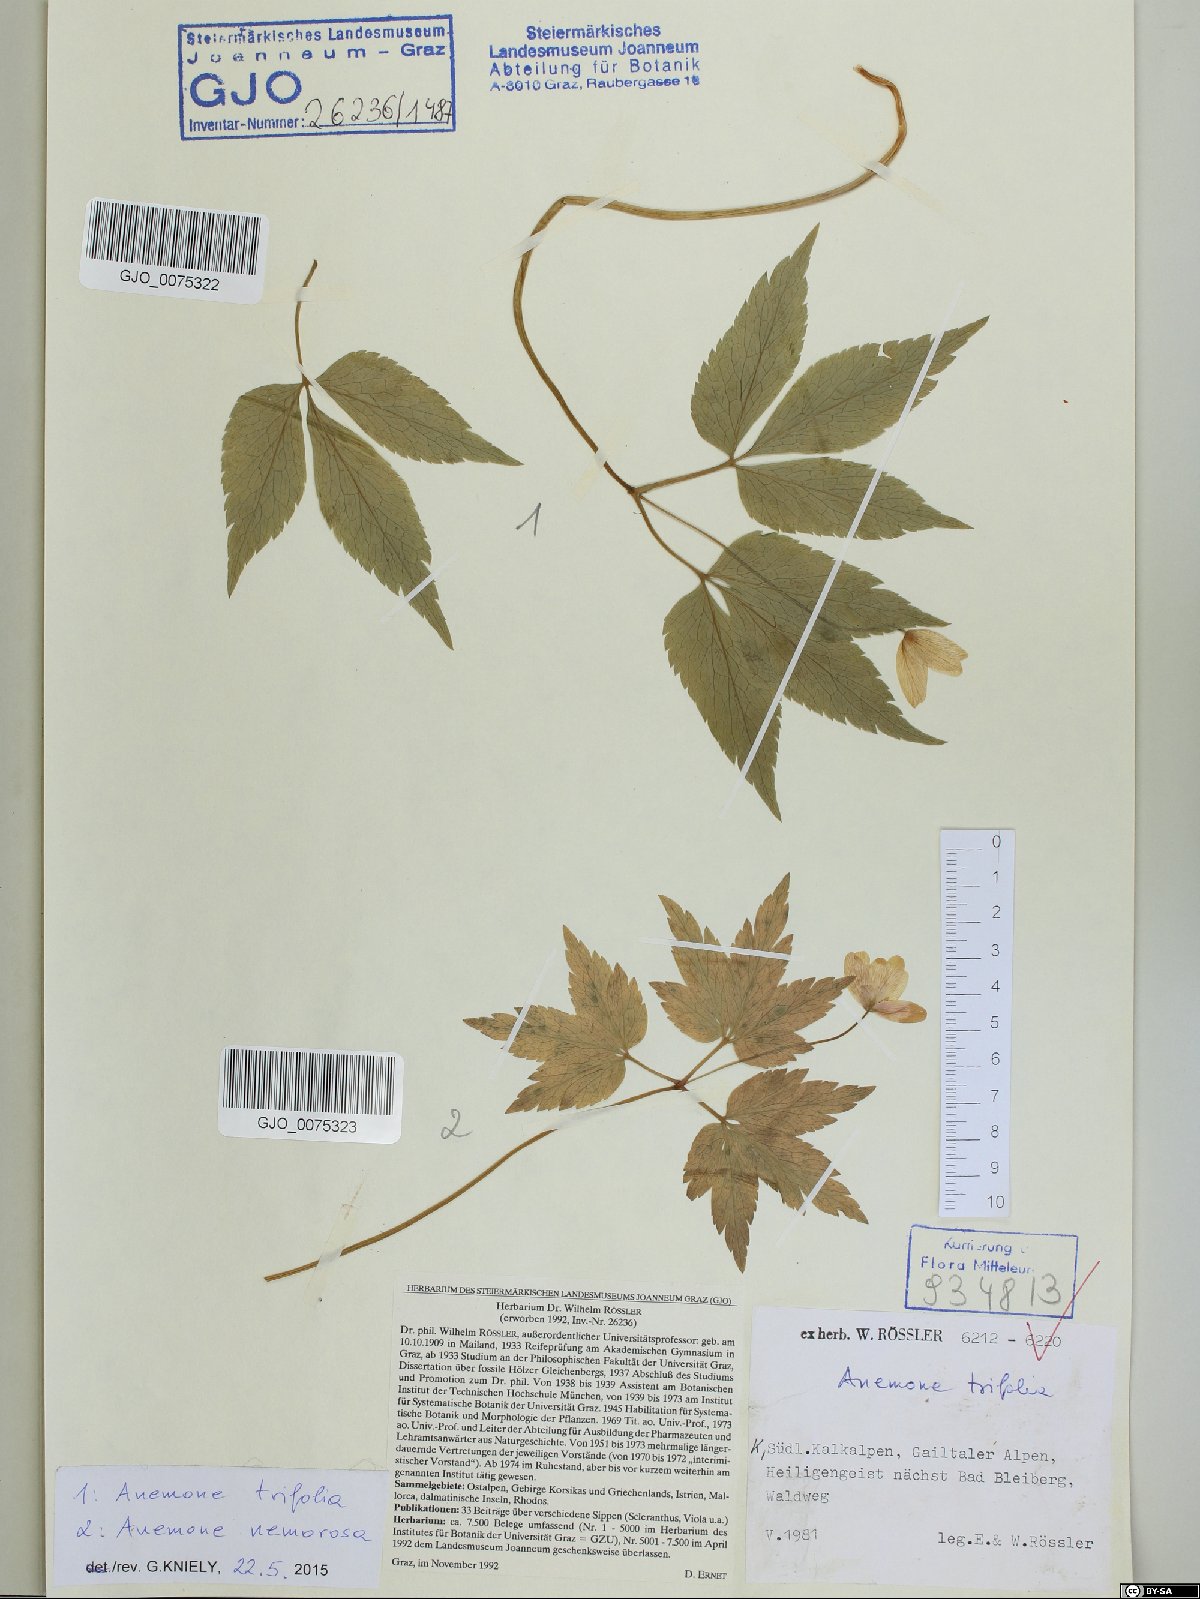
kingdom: Plantae
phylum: Tracheophyta
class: Magnoliopsida
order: Ranunculales
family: Ranunculaceae
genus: Anemone
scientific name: Anemone nemorosa
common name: Wood anemone
